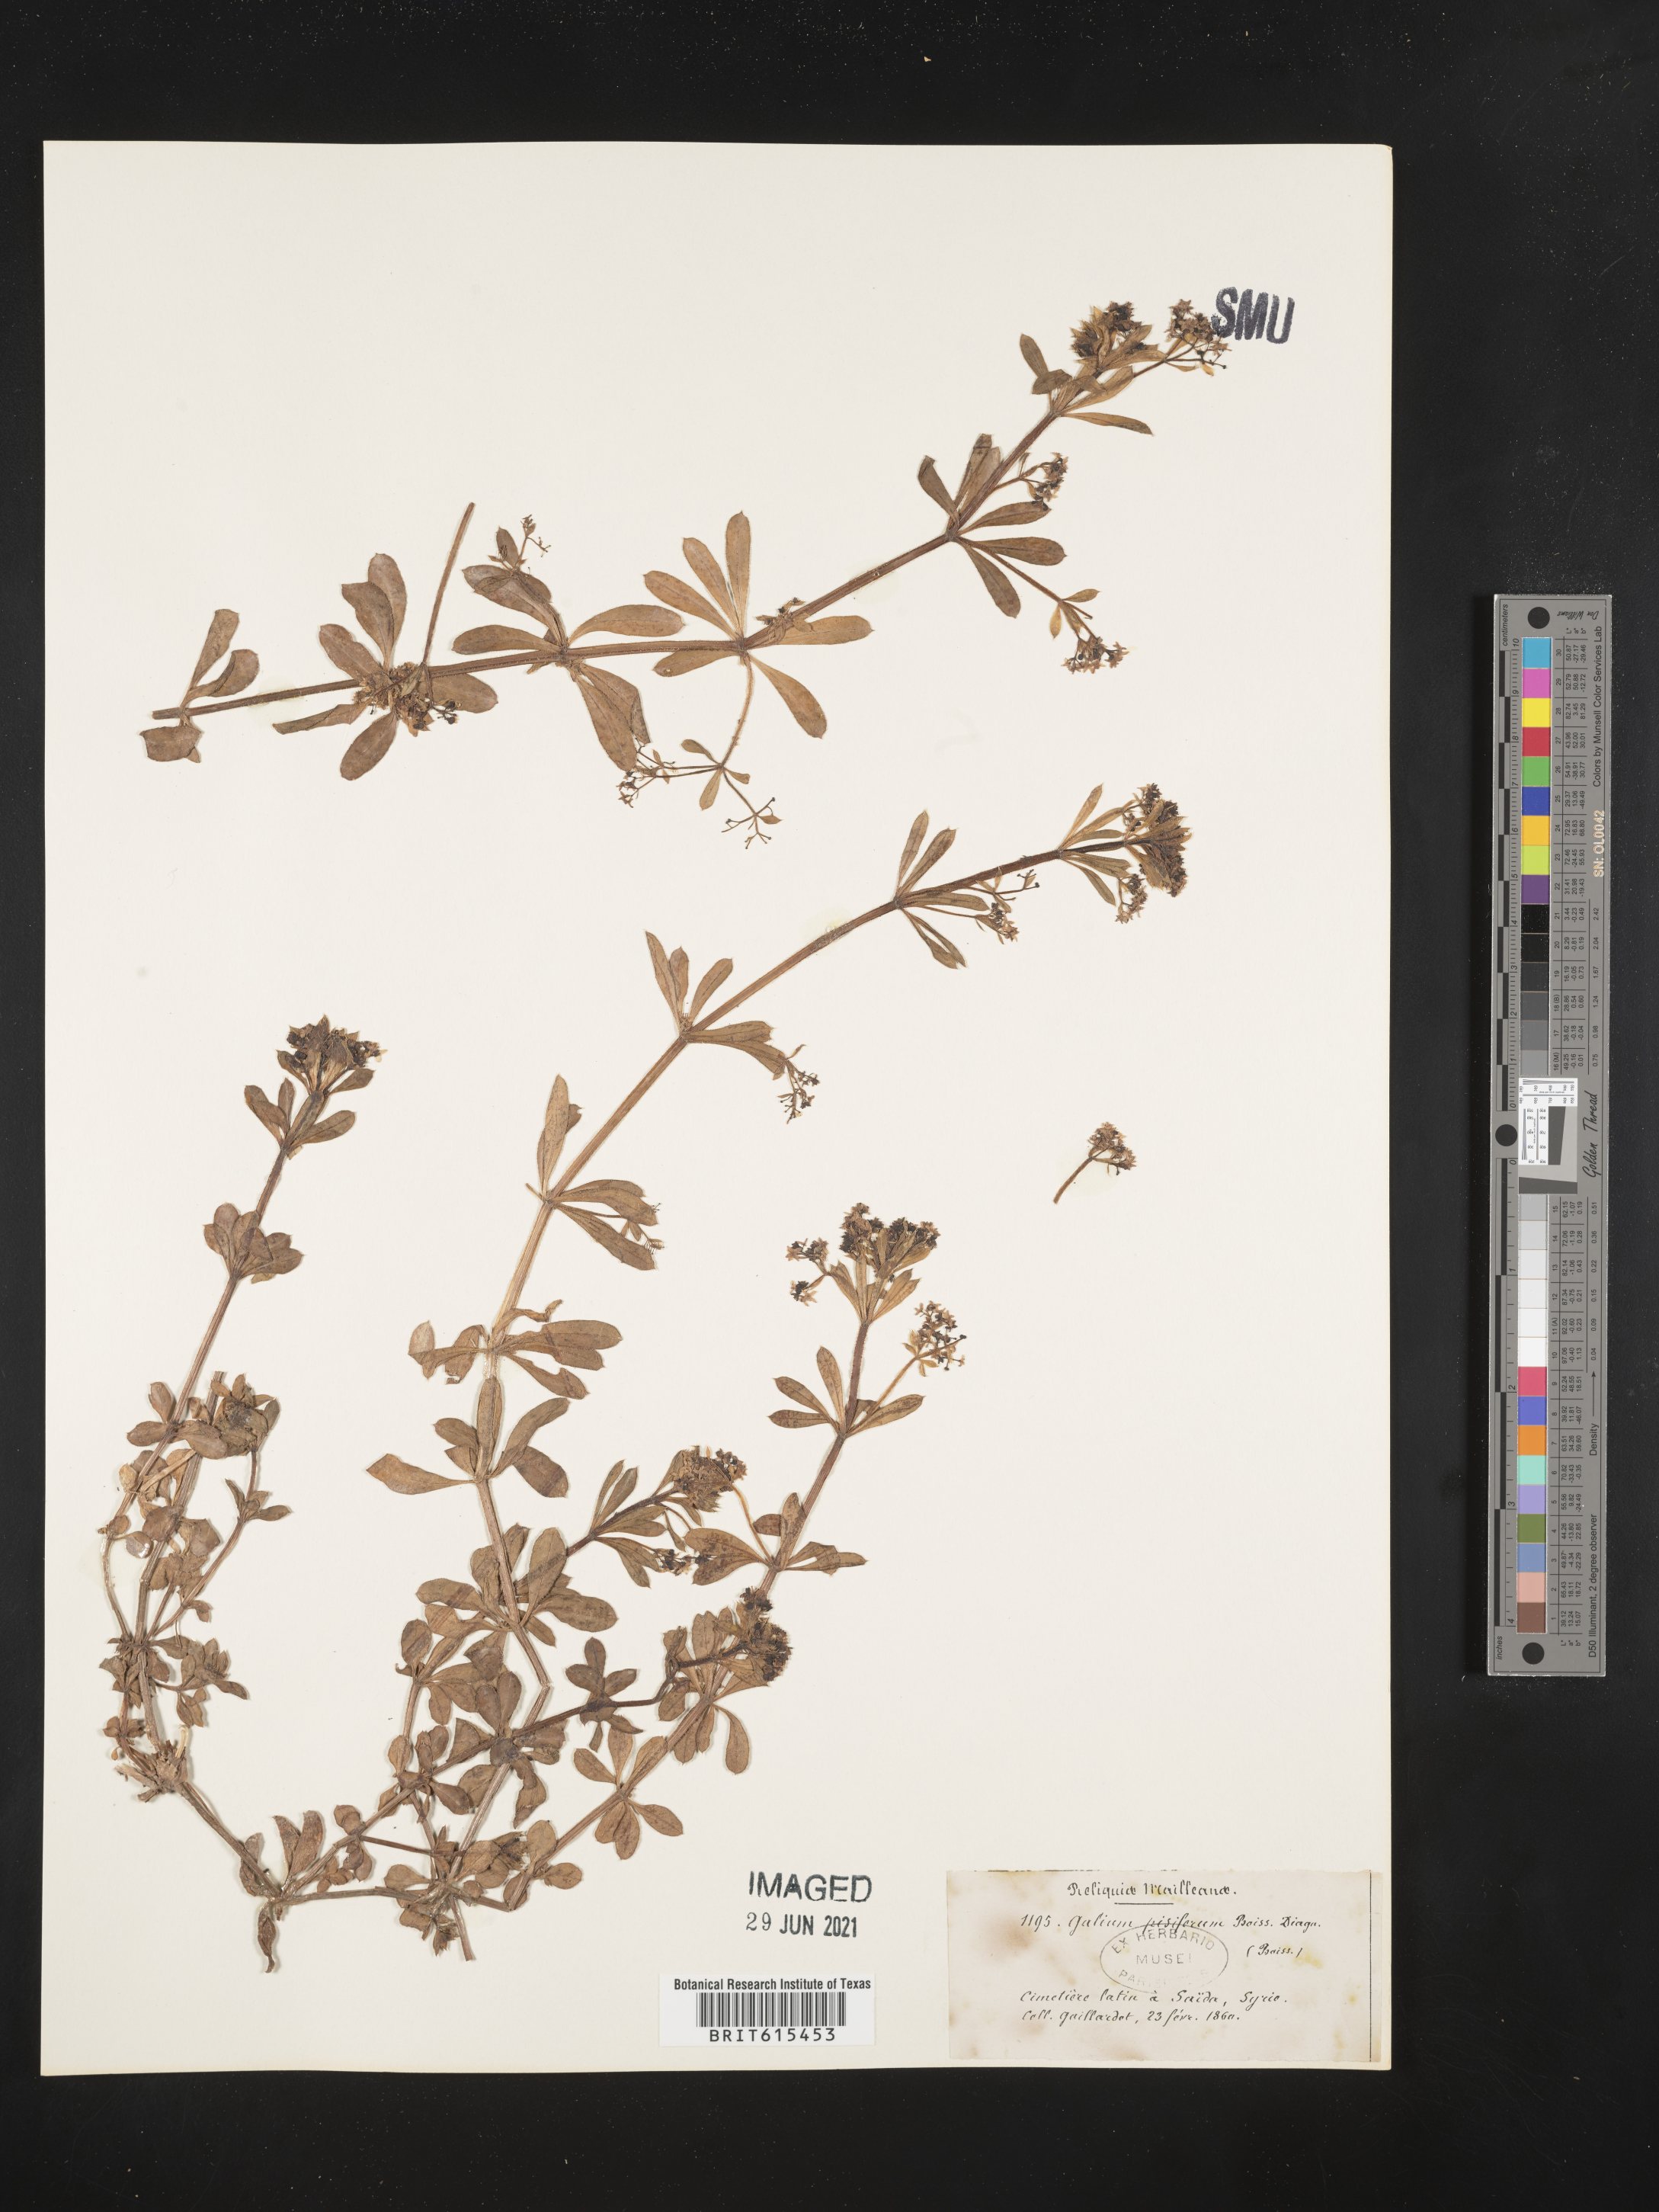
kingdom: Plantae
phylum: Tracheophyta
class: Magnoliopsida
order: Gentianales
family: Rubiaceae
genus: Galium
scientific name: Galium pisiferum
